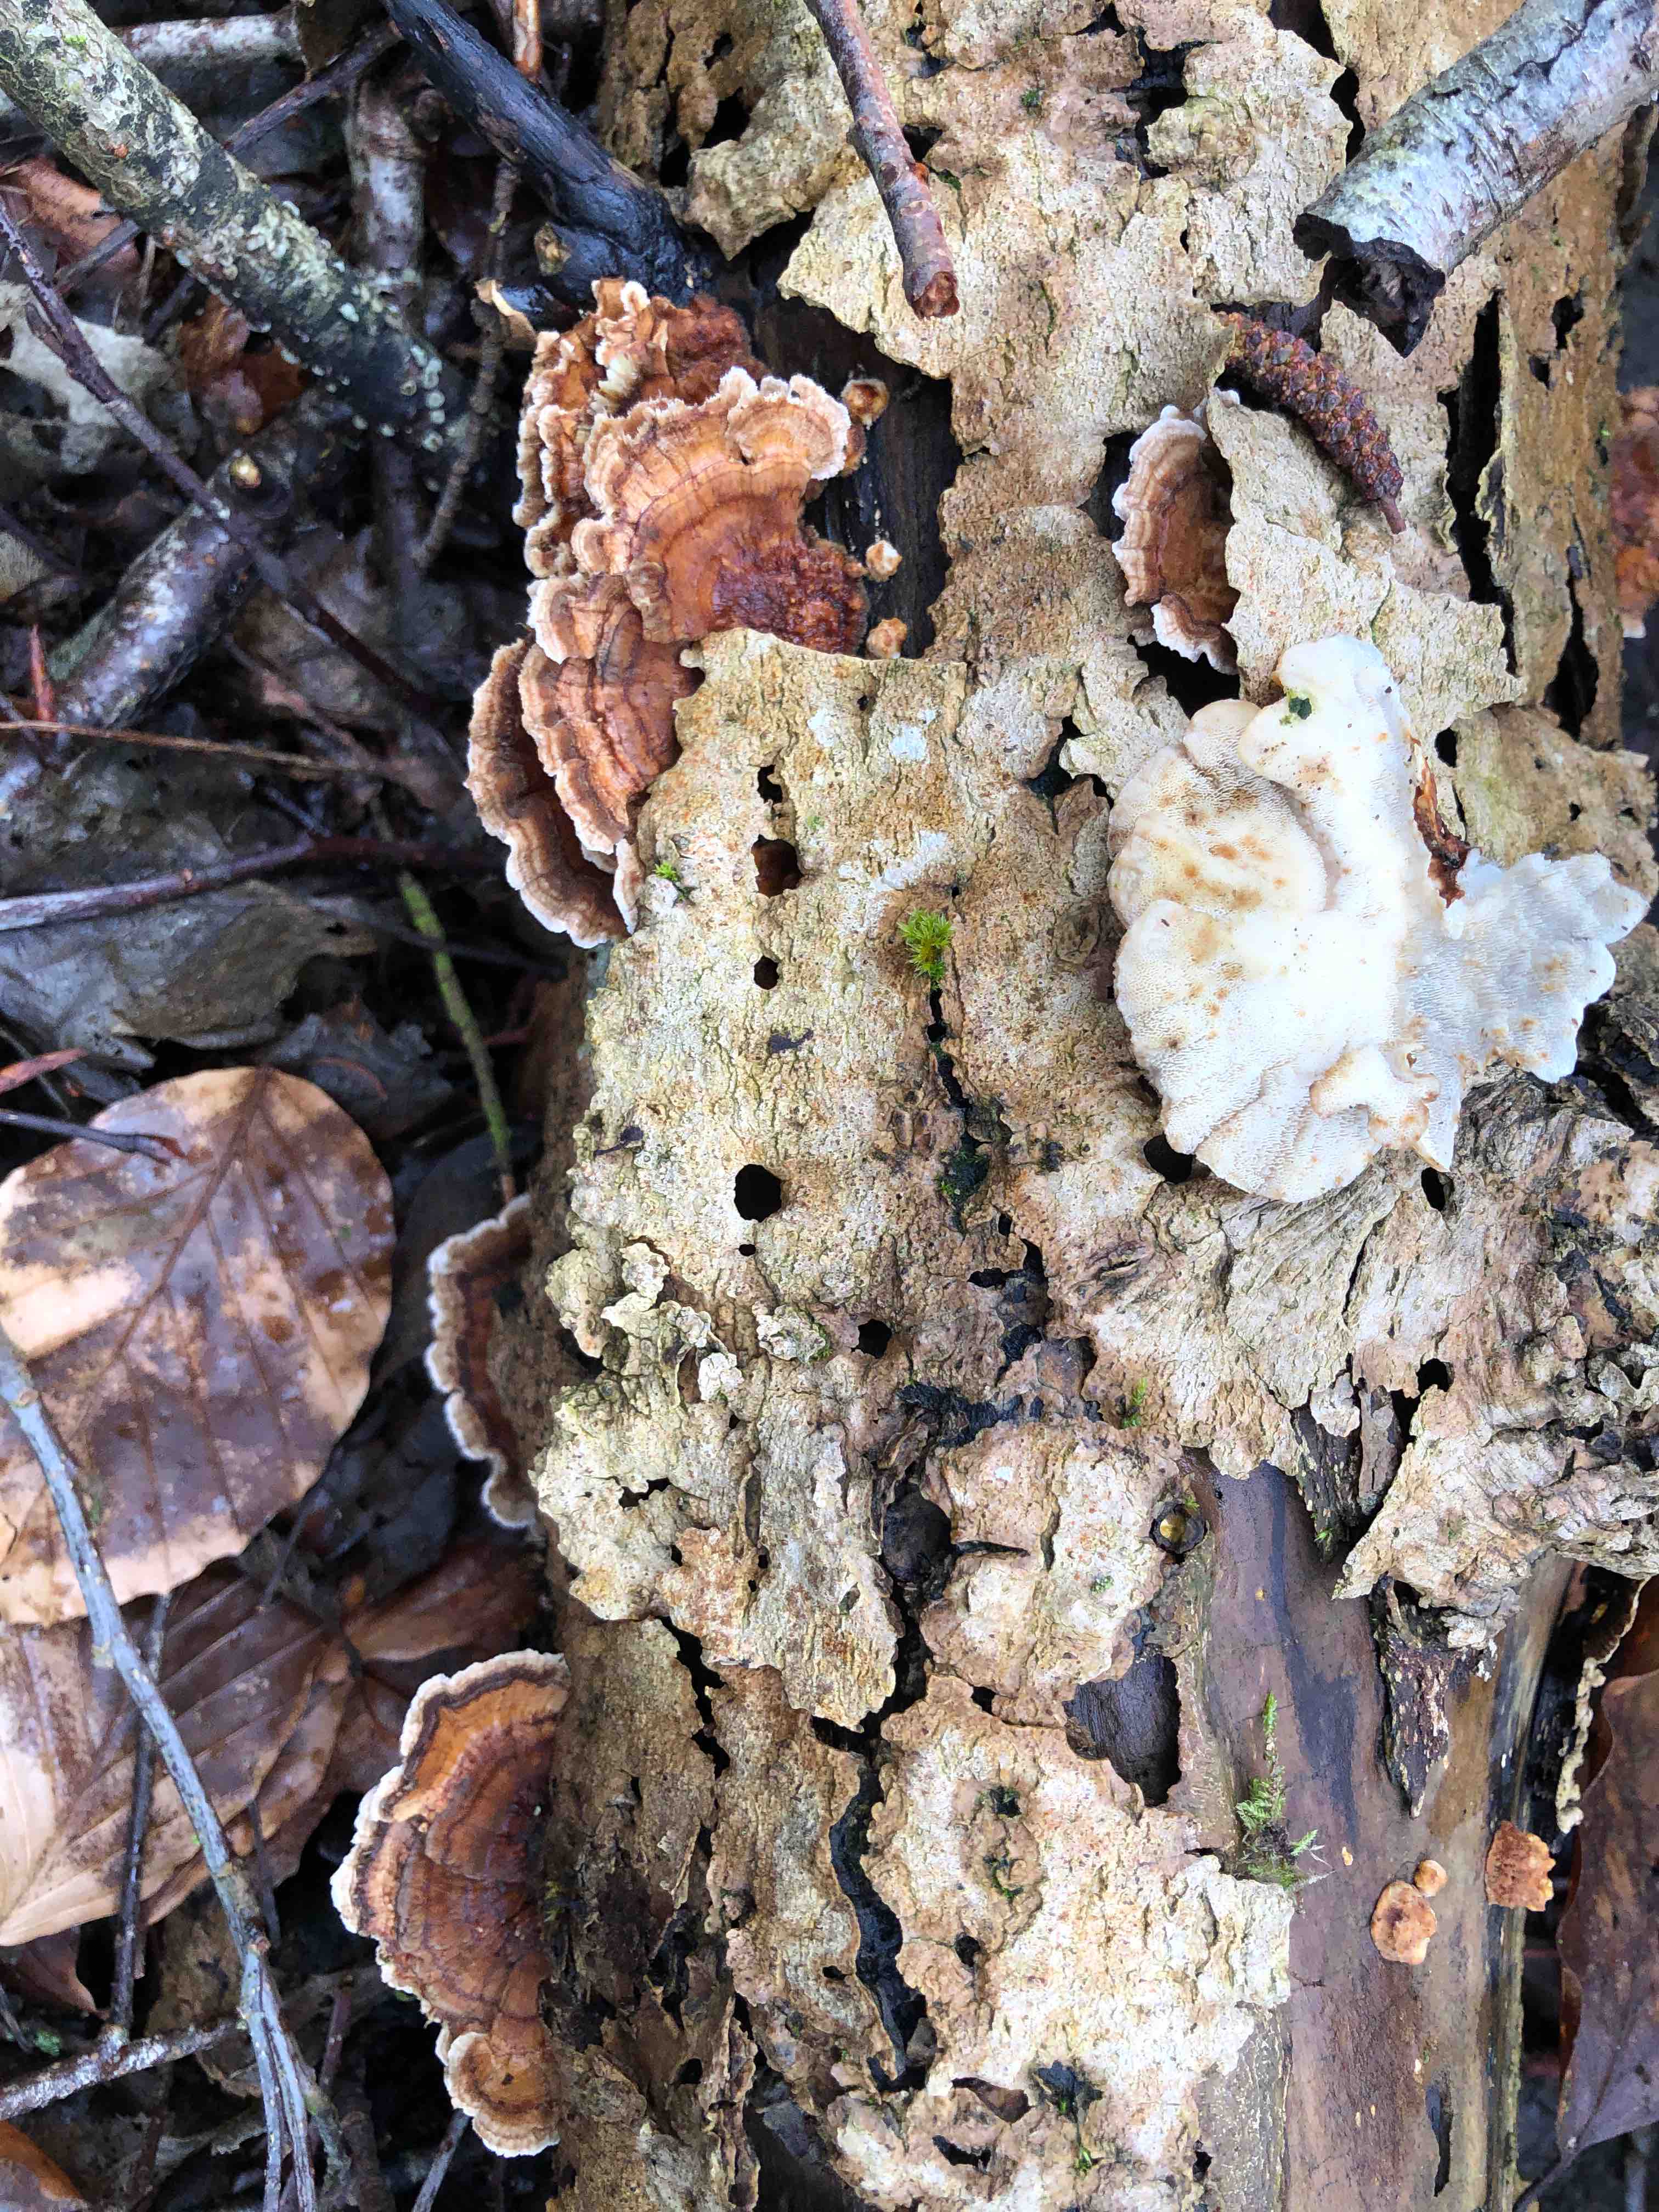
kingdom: Fungi
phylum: Basidiomycota
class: Agaricomycetes
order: Polyporales
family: Polyporaceae
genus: Trametes
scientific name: Trametes ochracea
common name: bæltet læderporesvamp
